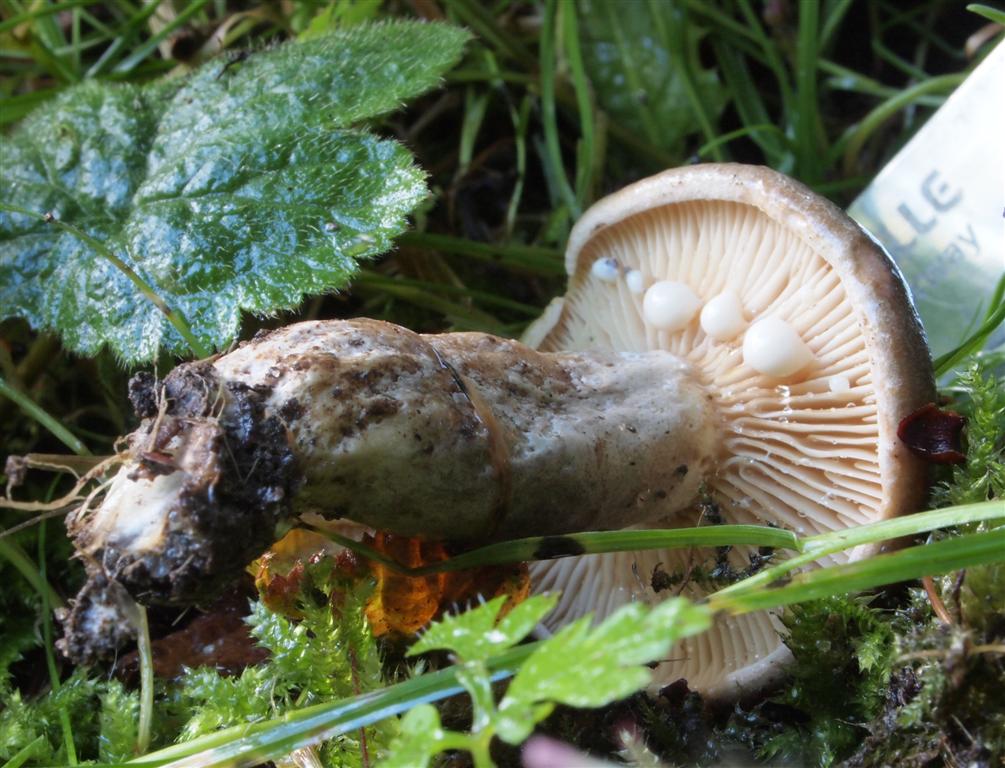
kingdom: Fungi
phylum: Basidiomycota
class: Agaricomycetes
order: Russulales
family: Russulaceae
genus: Lactarius
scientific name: Lactarius pyrogalus
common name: hassel-mælkehat
